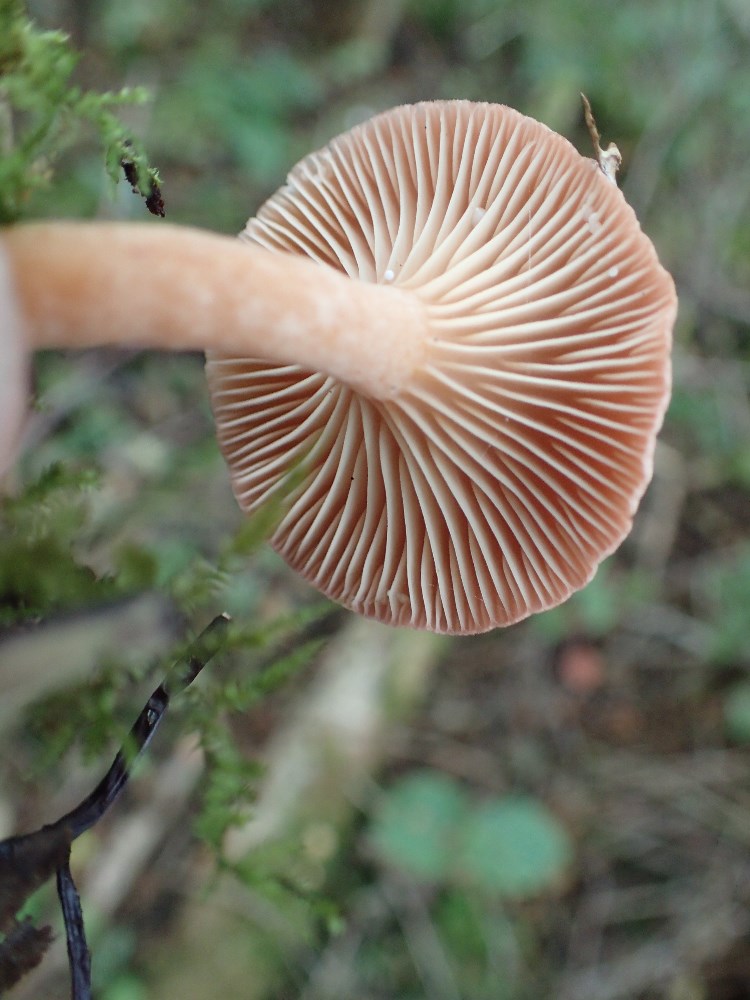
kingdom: Fungi
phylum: Basidiomycota
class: Agaricomycetes
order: Russulales
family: Russulaceae
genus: Lactarius
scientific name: Lactarius lilacinus
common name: lilla mælkehat
